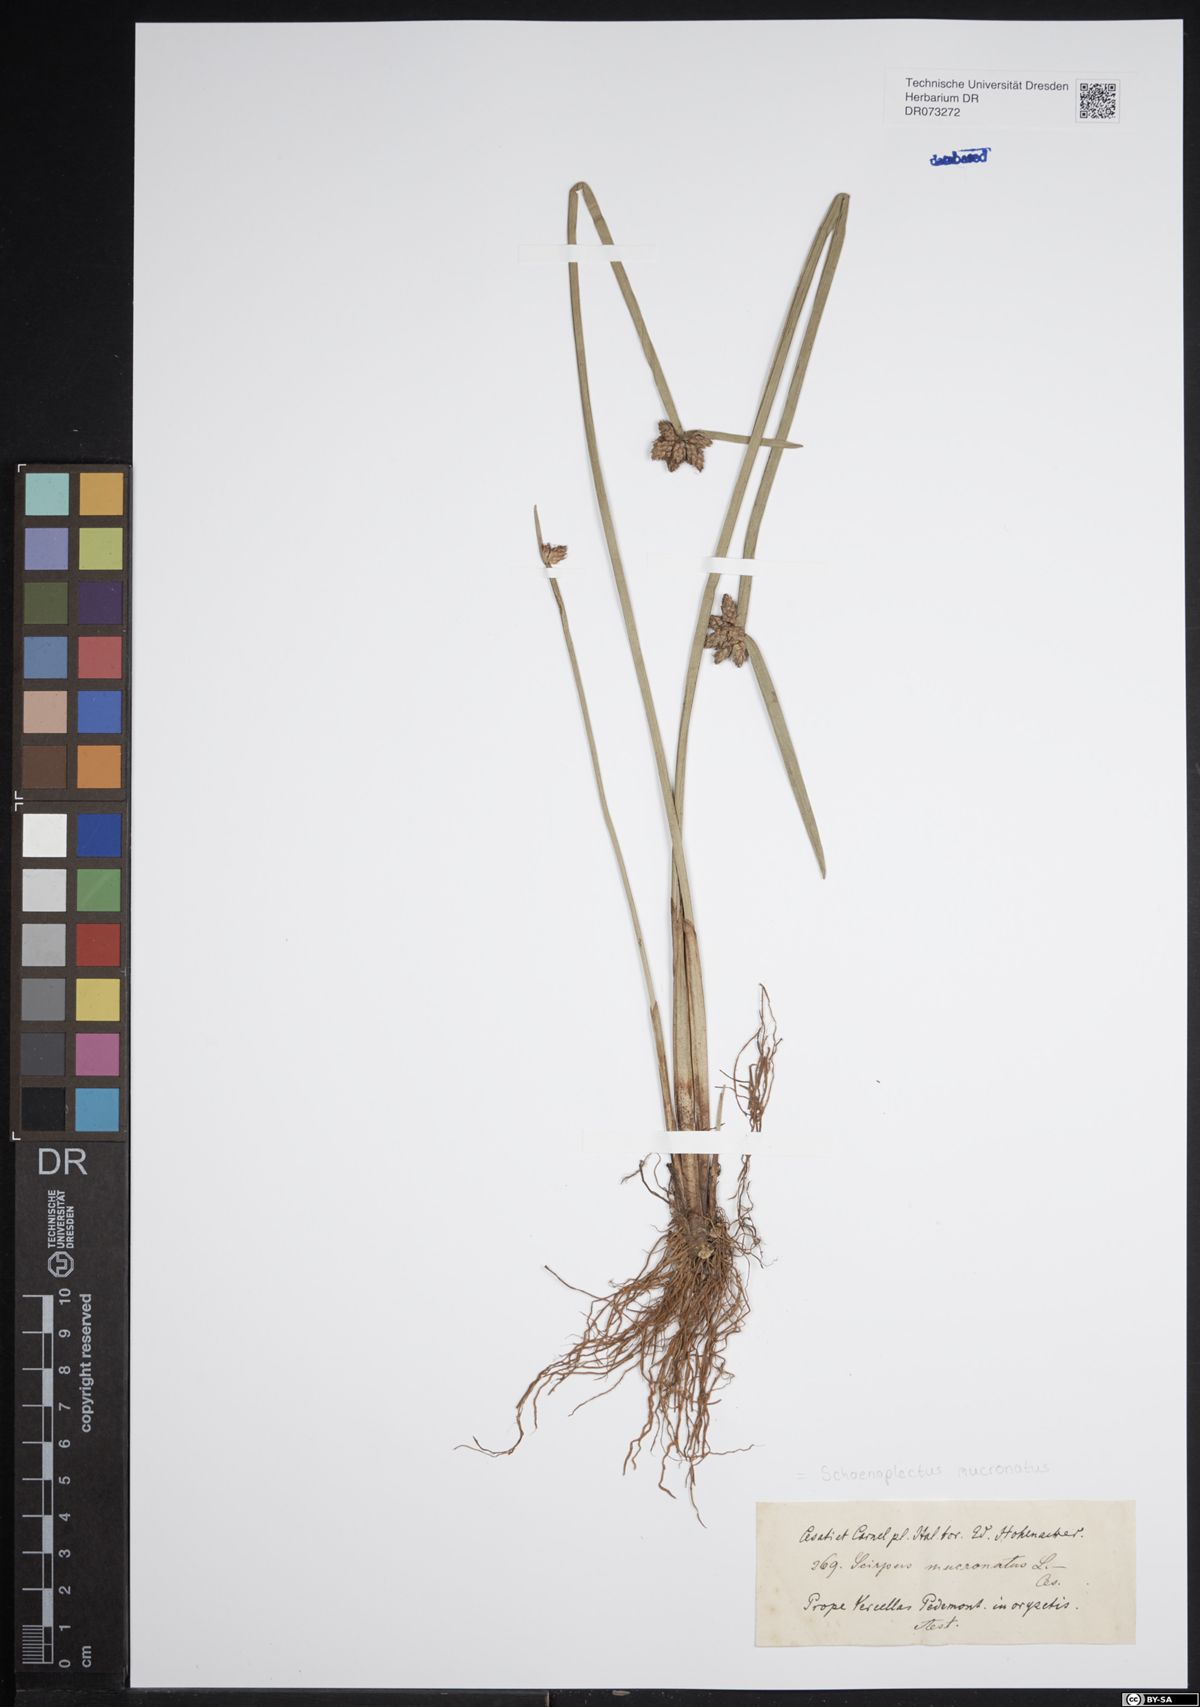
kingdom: Plantae
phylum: Tracheophyta
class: Liliopsida
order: Poales
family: Cyperaceae
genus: Schoenoplectiella
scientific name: Schoenoplectiella mucronata
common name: Bog bulrush
